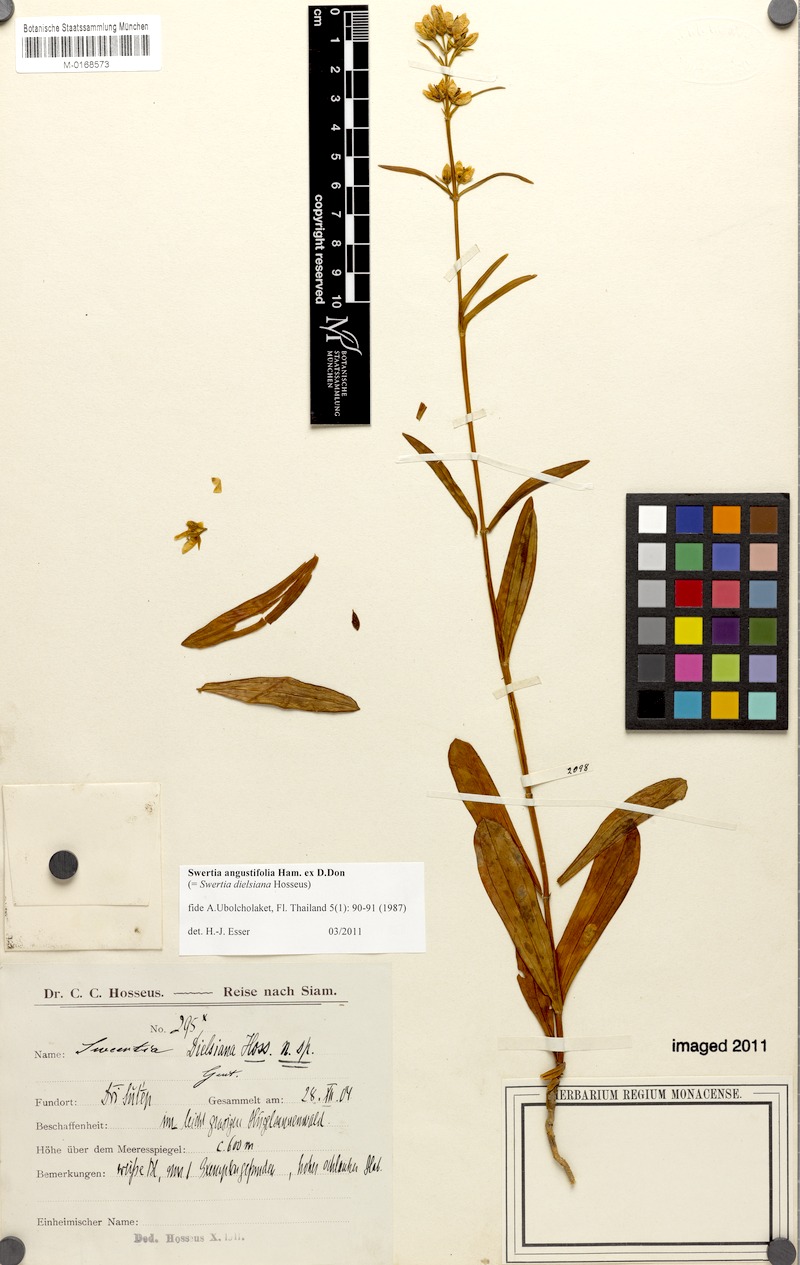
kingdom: Plantae
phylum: Tracheophyta
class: Magnoliopsida
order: Gentianales
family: Gentianaceae
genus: Swertia
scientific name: Swertia angustifolia
